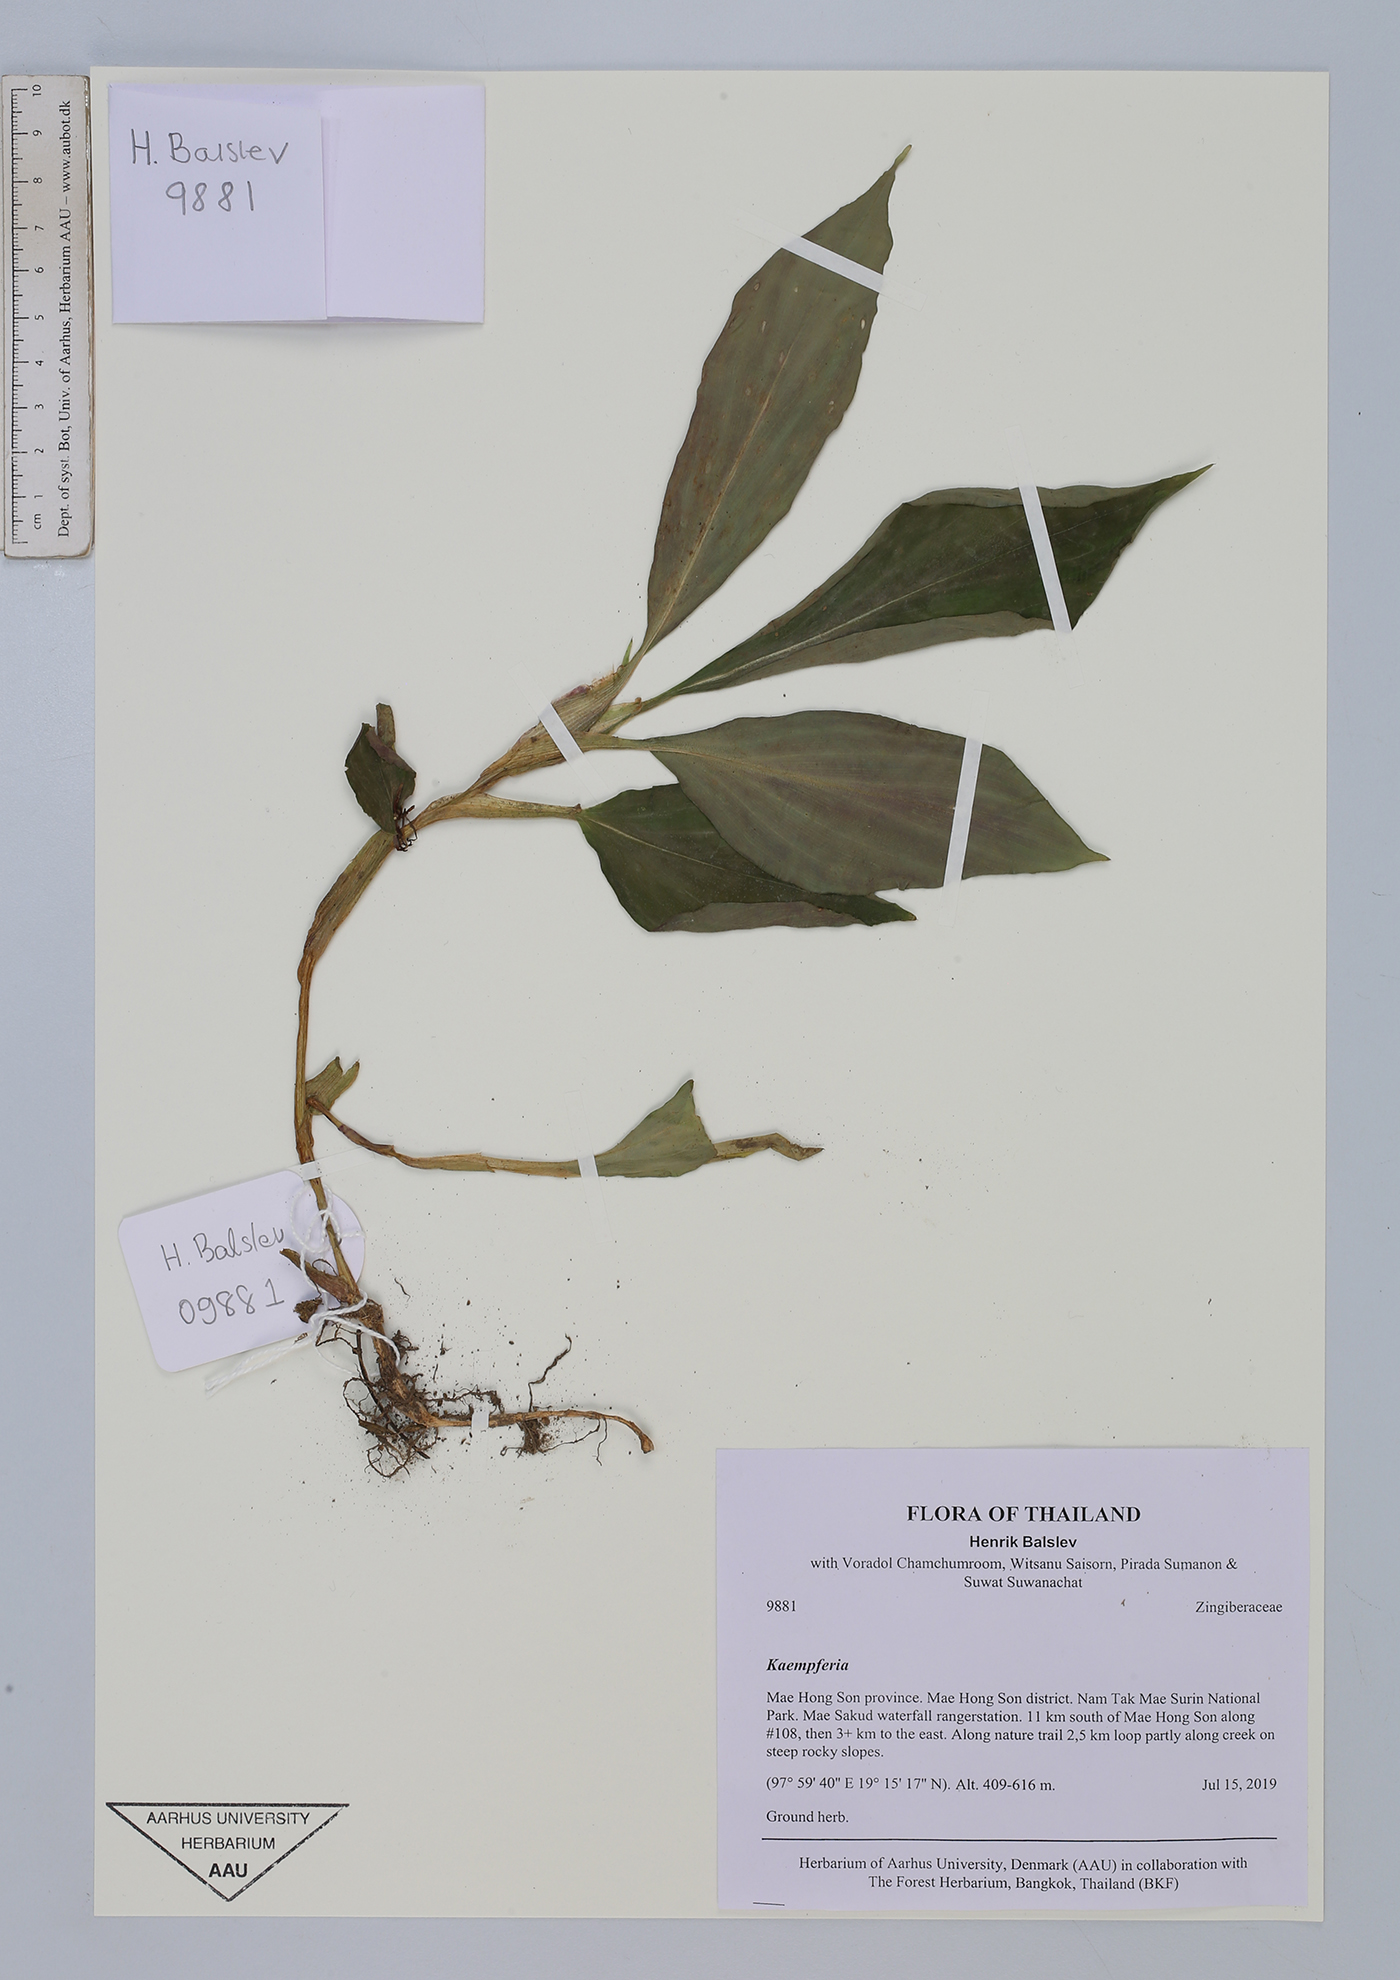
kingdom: Plantae
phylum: Tracheophyta
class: Liliopsida
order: Zingiberales
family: Zingiberaceae
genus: Kaempferia
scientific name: Kaempferia
